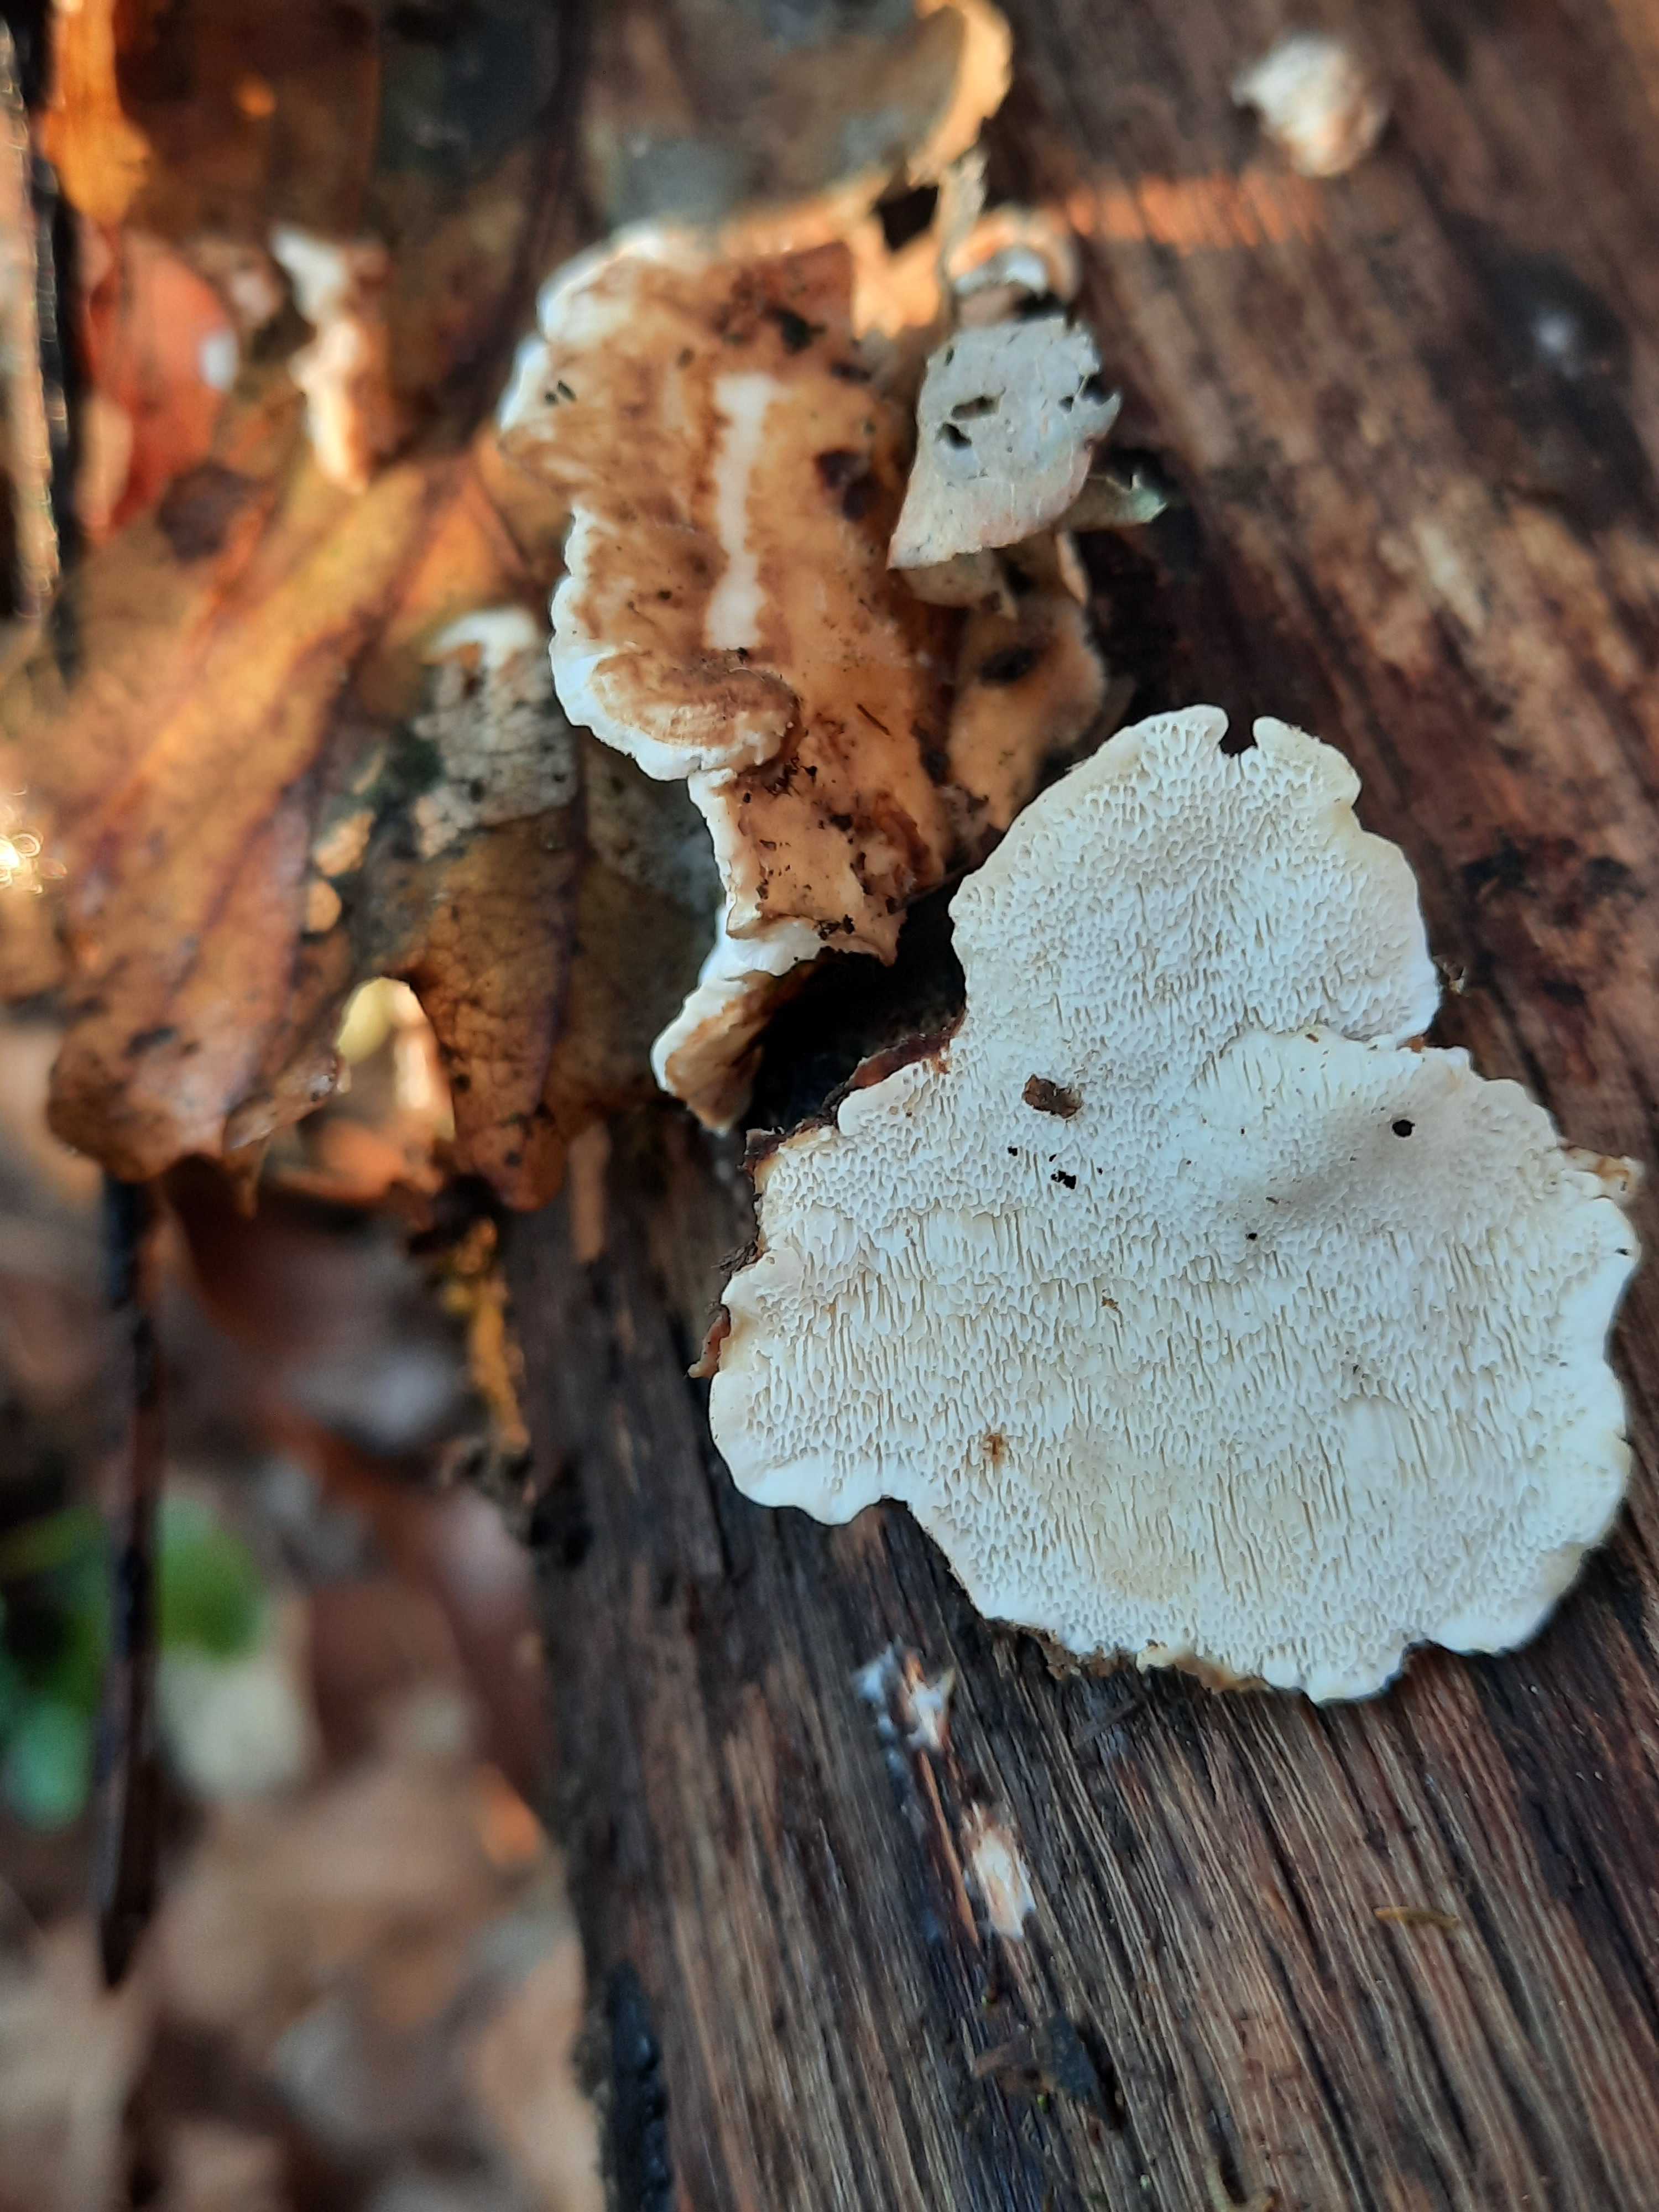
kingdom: Fungi
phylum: Basidiomycota
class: Agaricomycetes
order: Polyporales
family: Polyporaceae
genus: Trametes
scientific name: Trametes ochracea
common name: bæltet læderporesvamp
